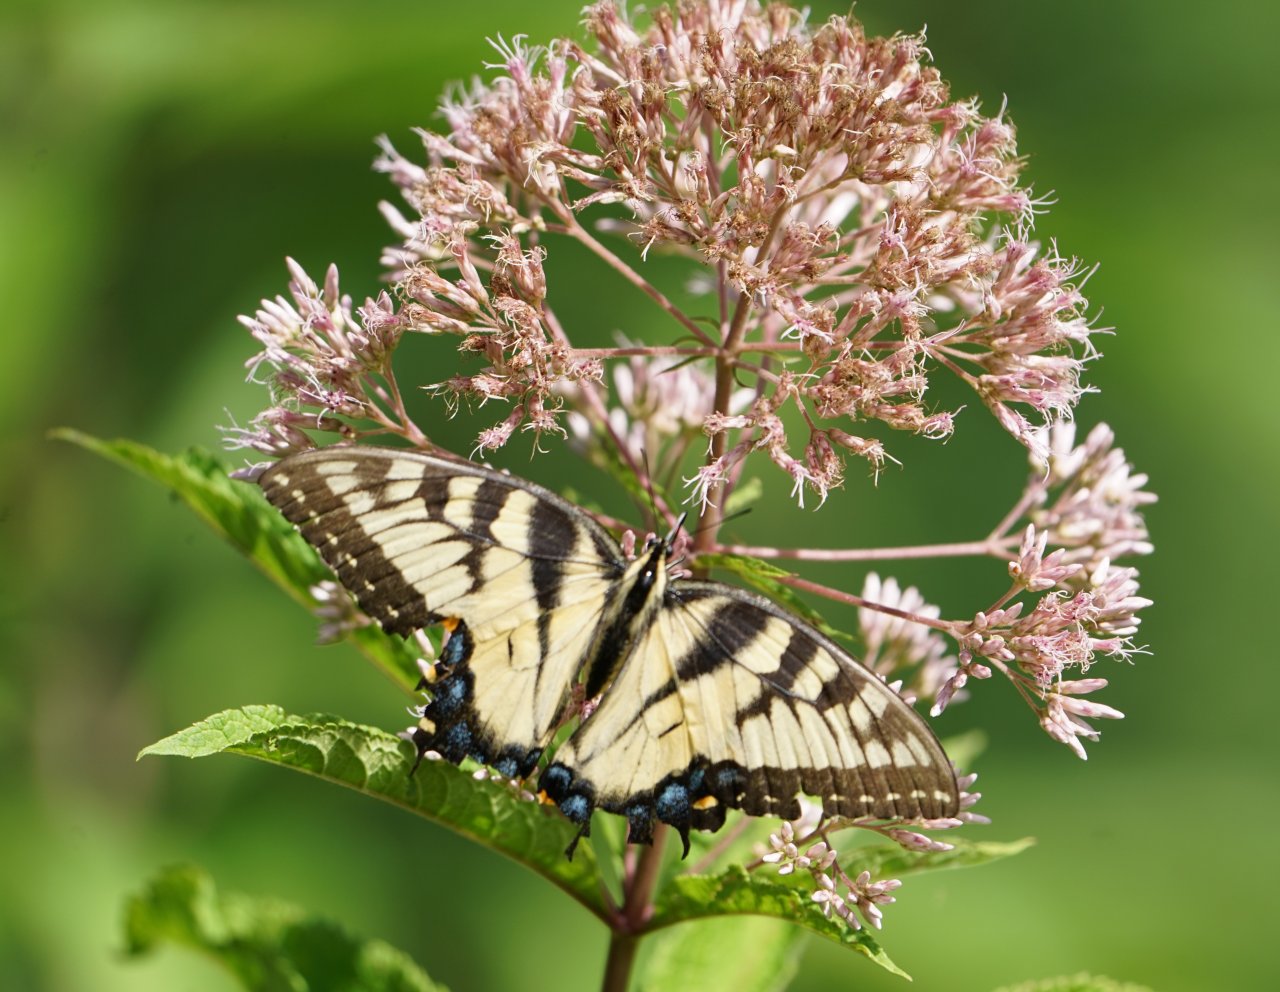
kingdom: Animalia
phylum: Arthropoda
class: Insecta
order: Lepidoptera
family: Papilionidae
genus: Pterourus
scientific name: Pterourus glaucus
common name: Eastern Tiger Swallowtail
